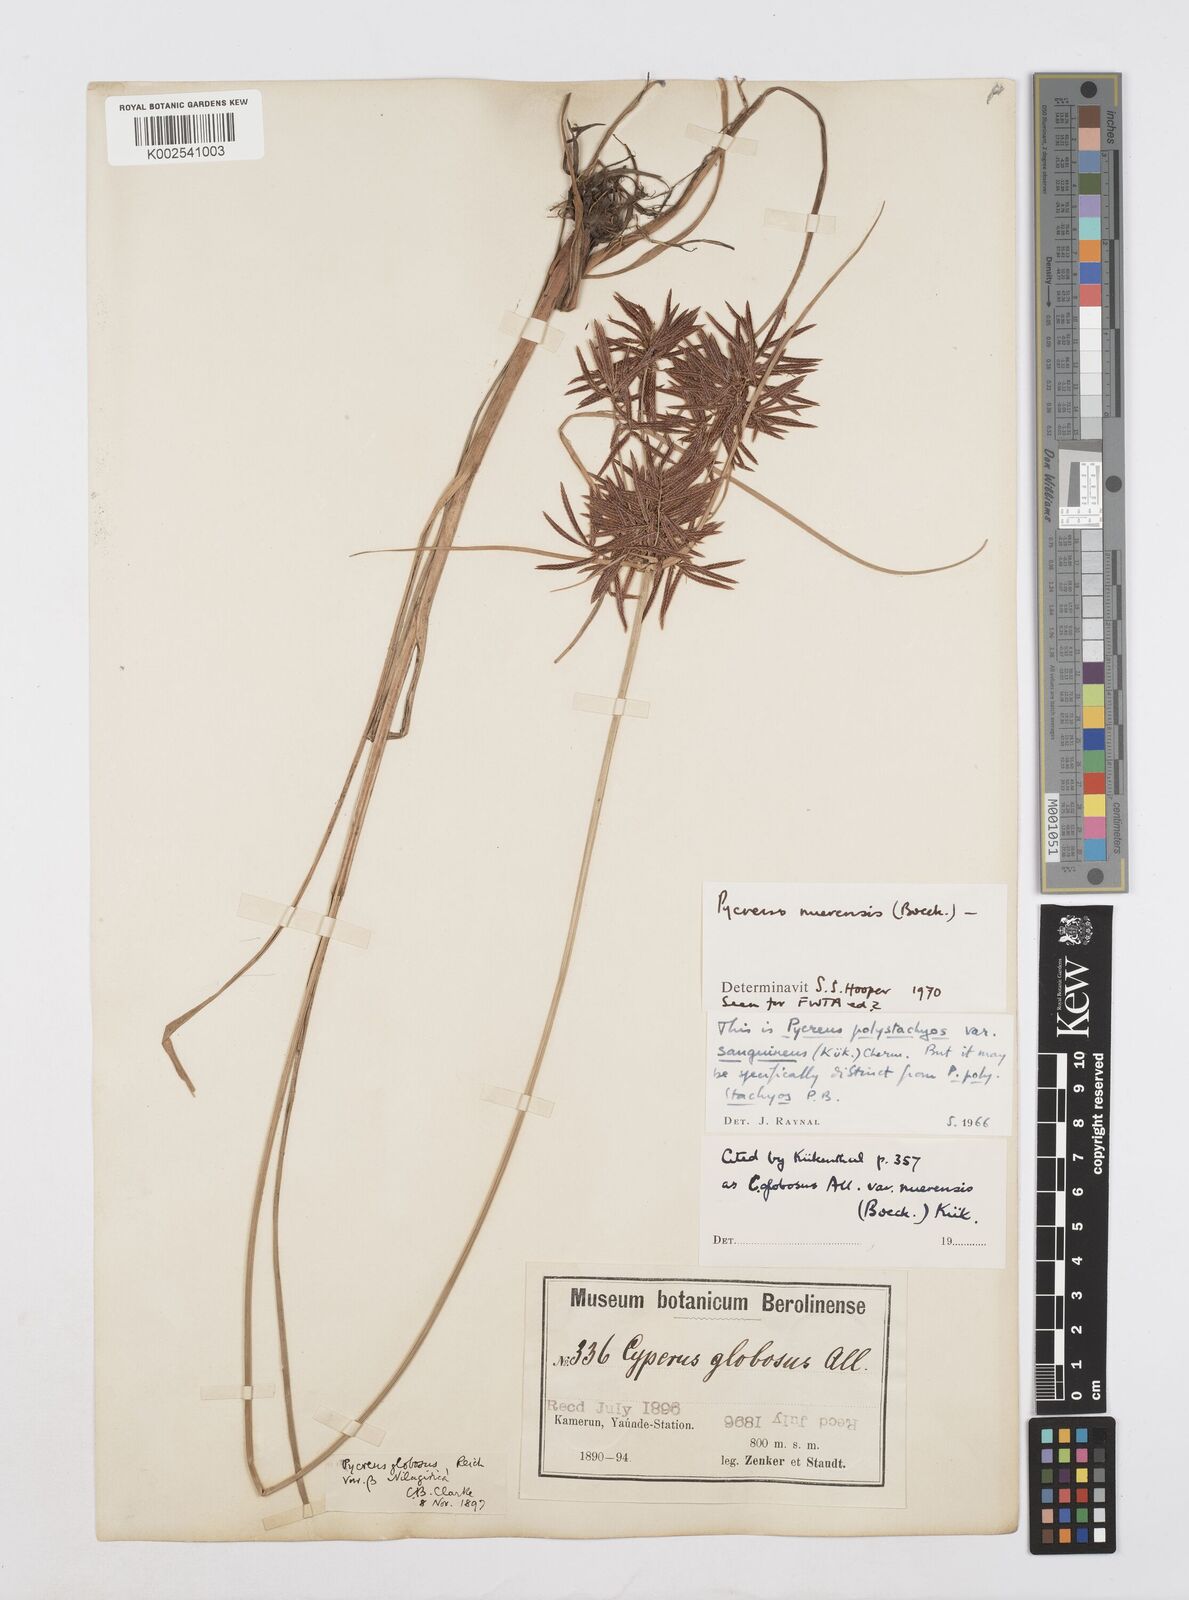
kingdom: Plantae
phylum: Tracheophyta
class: Liliopsida
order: Poales
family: Cyperaceae
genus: Cyperus
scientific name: Cyperus nuerensis
